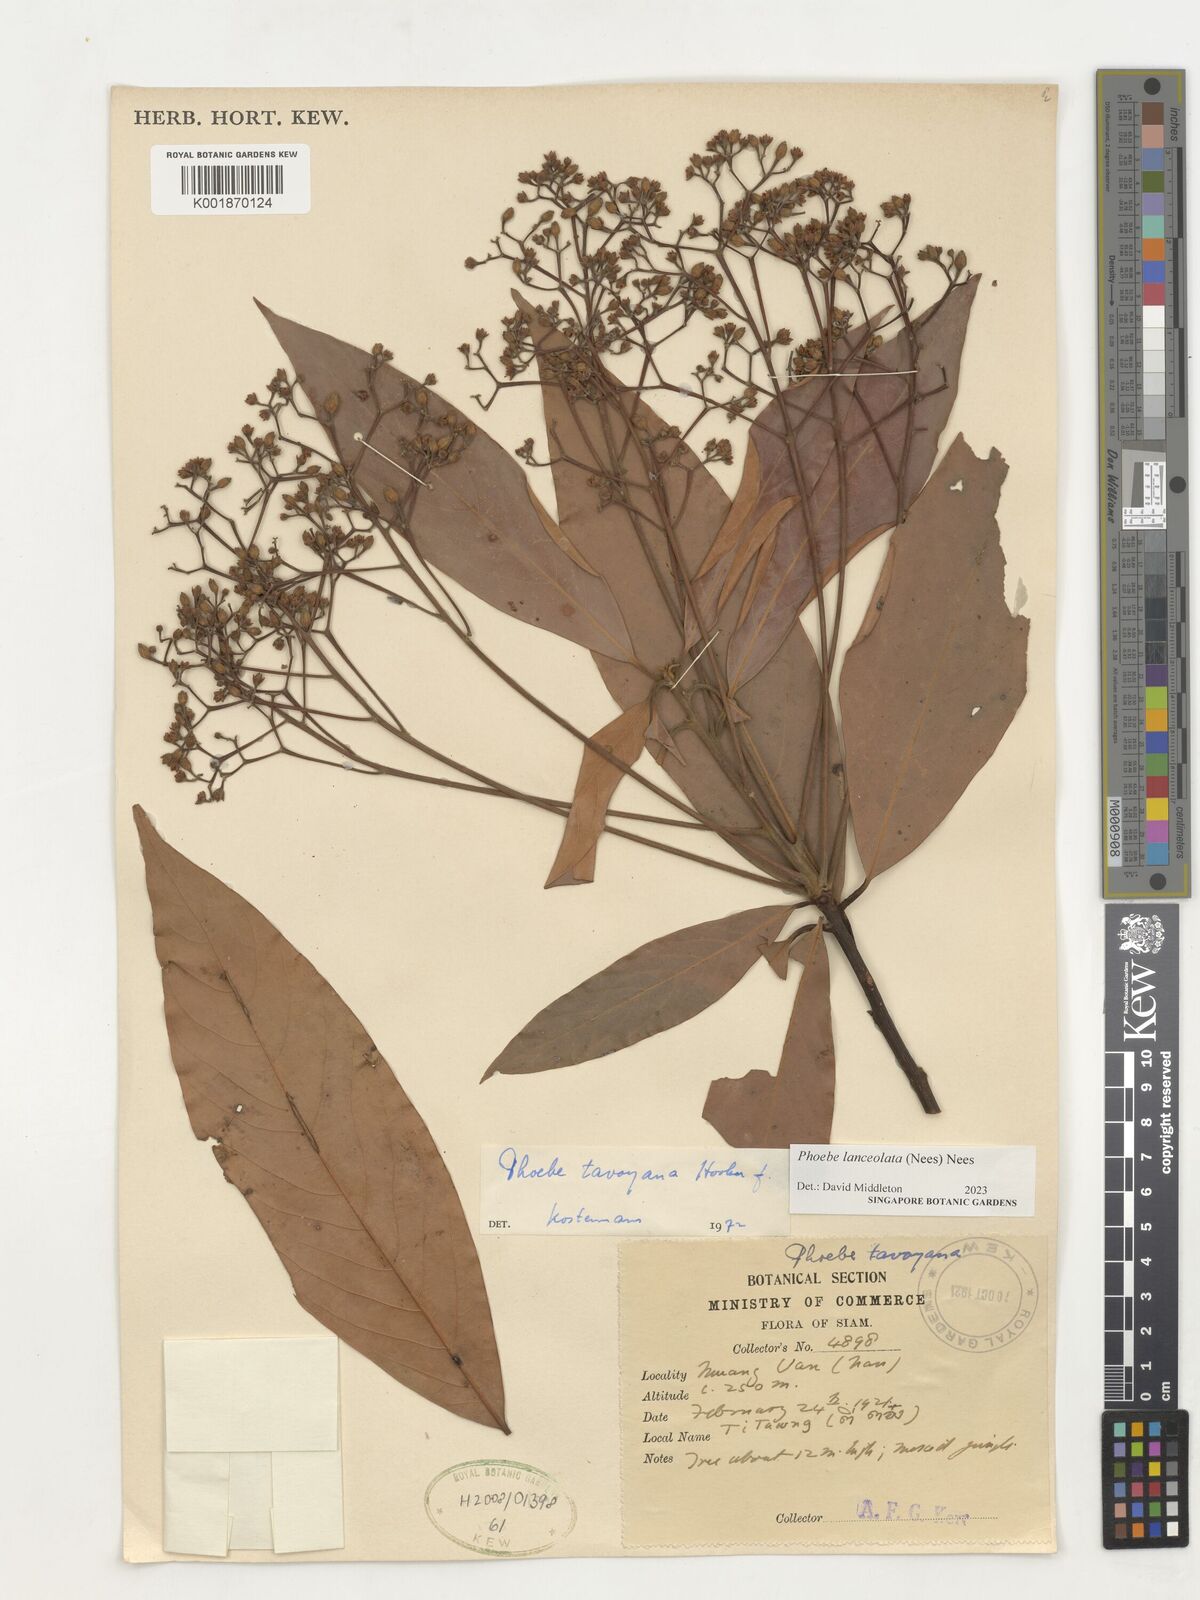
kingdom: Plantae
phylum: Tracheophyta
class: Magnoliopsida
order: Laurales
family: Lauraceae
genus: Phoebe
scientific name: Phoebe lanceolata
